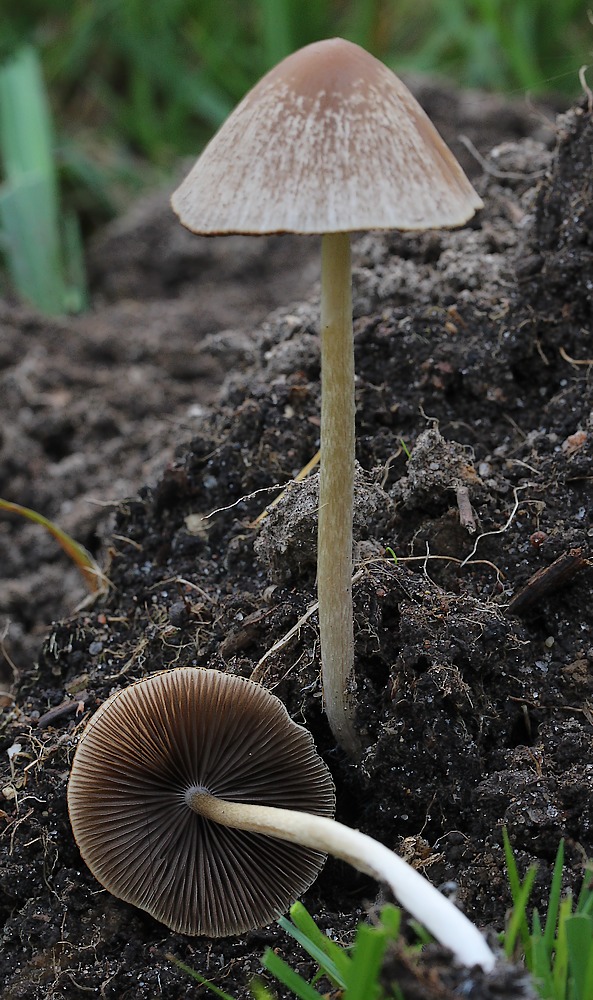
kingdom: Fungi
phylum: Basidiomycota
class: Agaricomycetes
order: Agaricales
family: Psathyrellaceae
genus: Psathyrella
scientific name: Psathyrella
